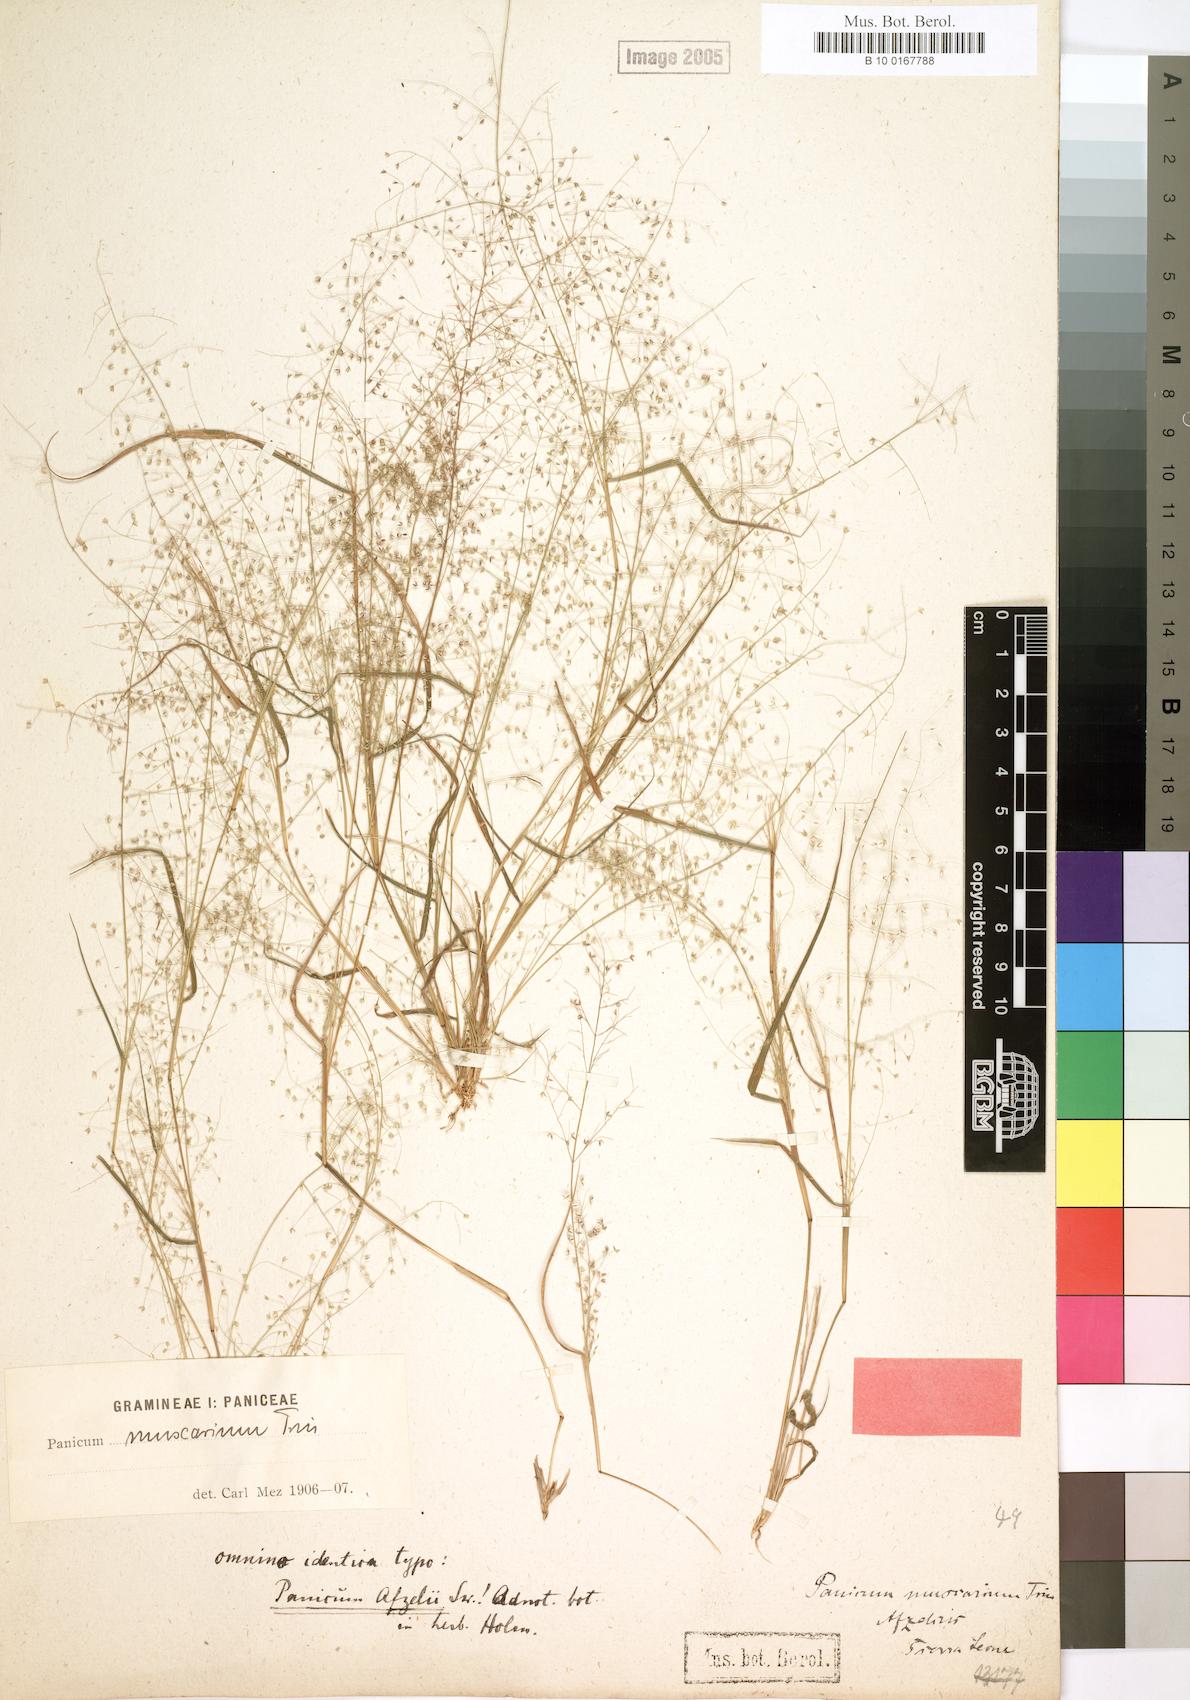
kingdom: Plantae
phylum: Tracheophyta
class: Liliopsida
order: Poales
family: Poaceae
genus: Panicum
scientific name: Panicum afzelii
